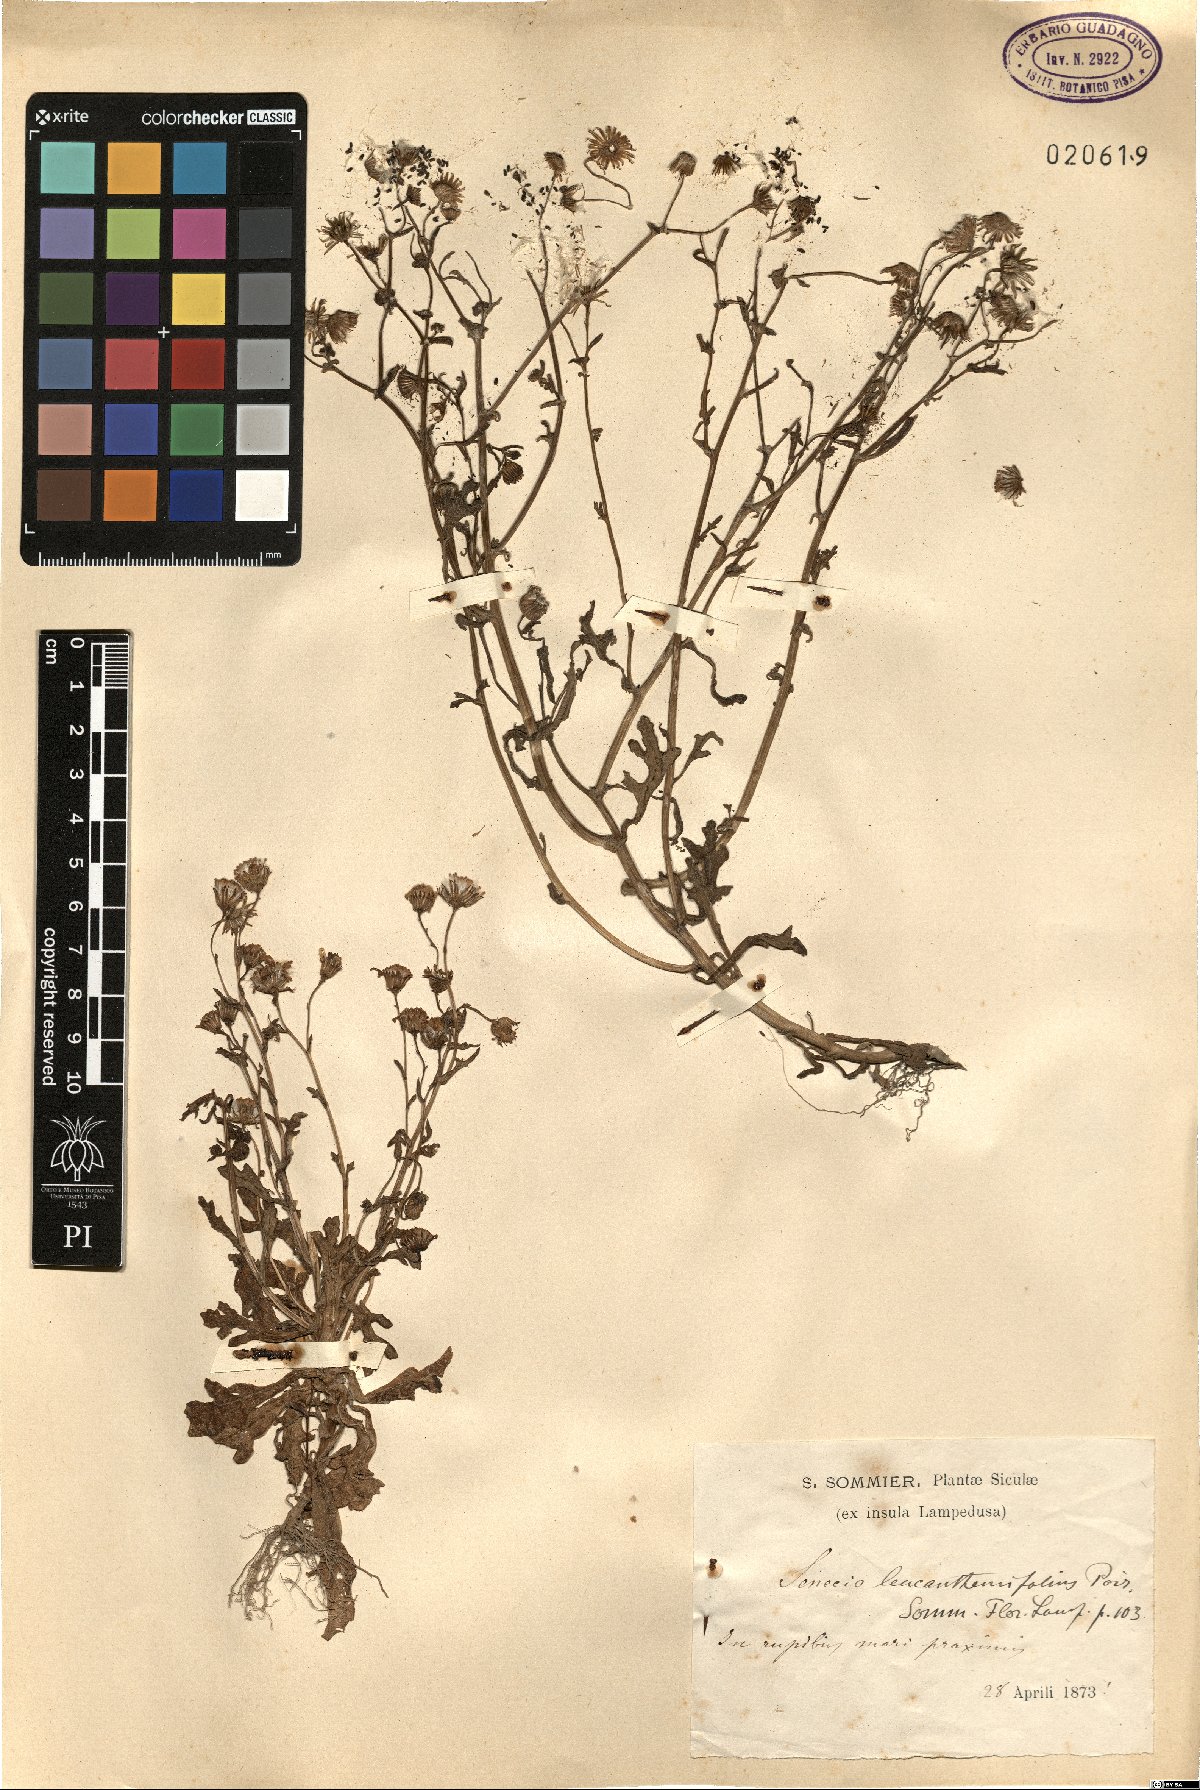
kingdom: Plantae
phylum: Tracheophyta
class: Magnoliopsida
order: Asterales
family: Asteraceae
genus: Senecio
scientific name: Senecio leucanthemifolius
